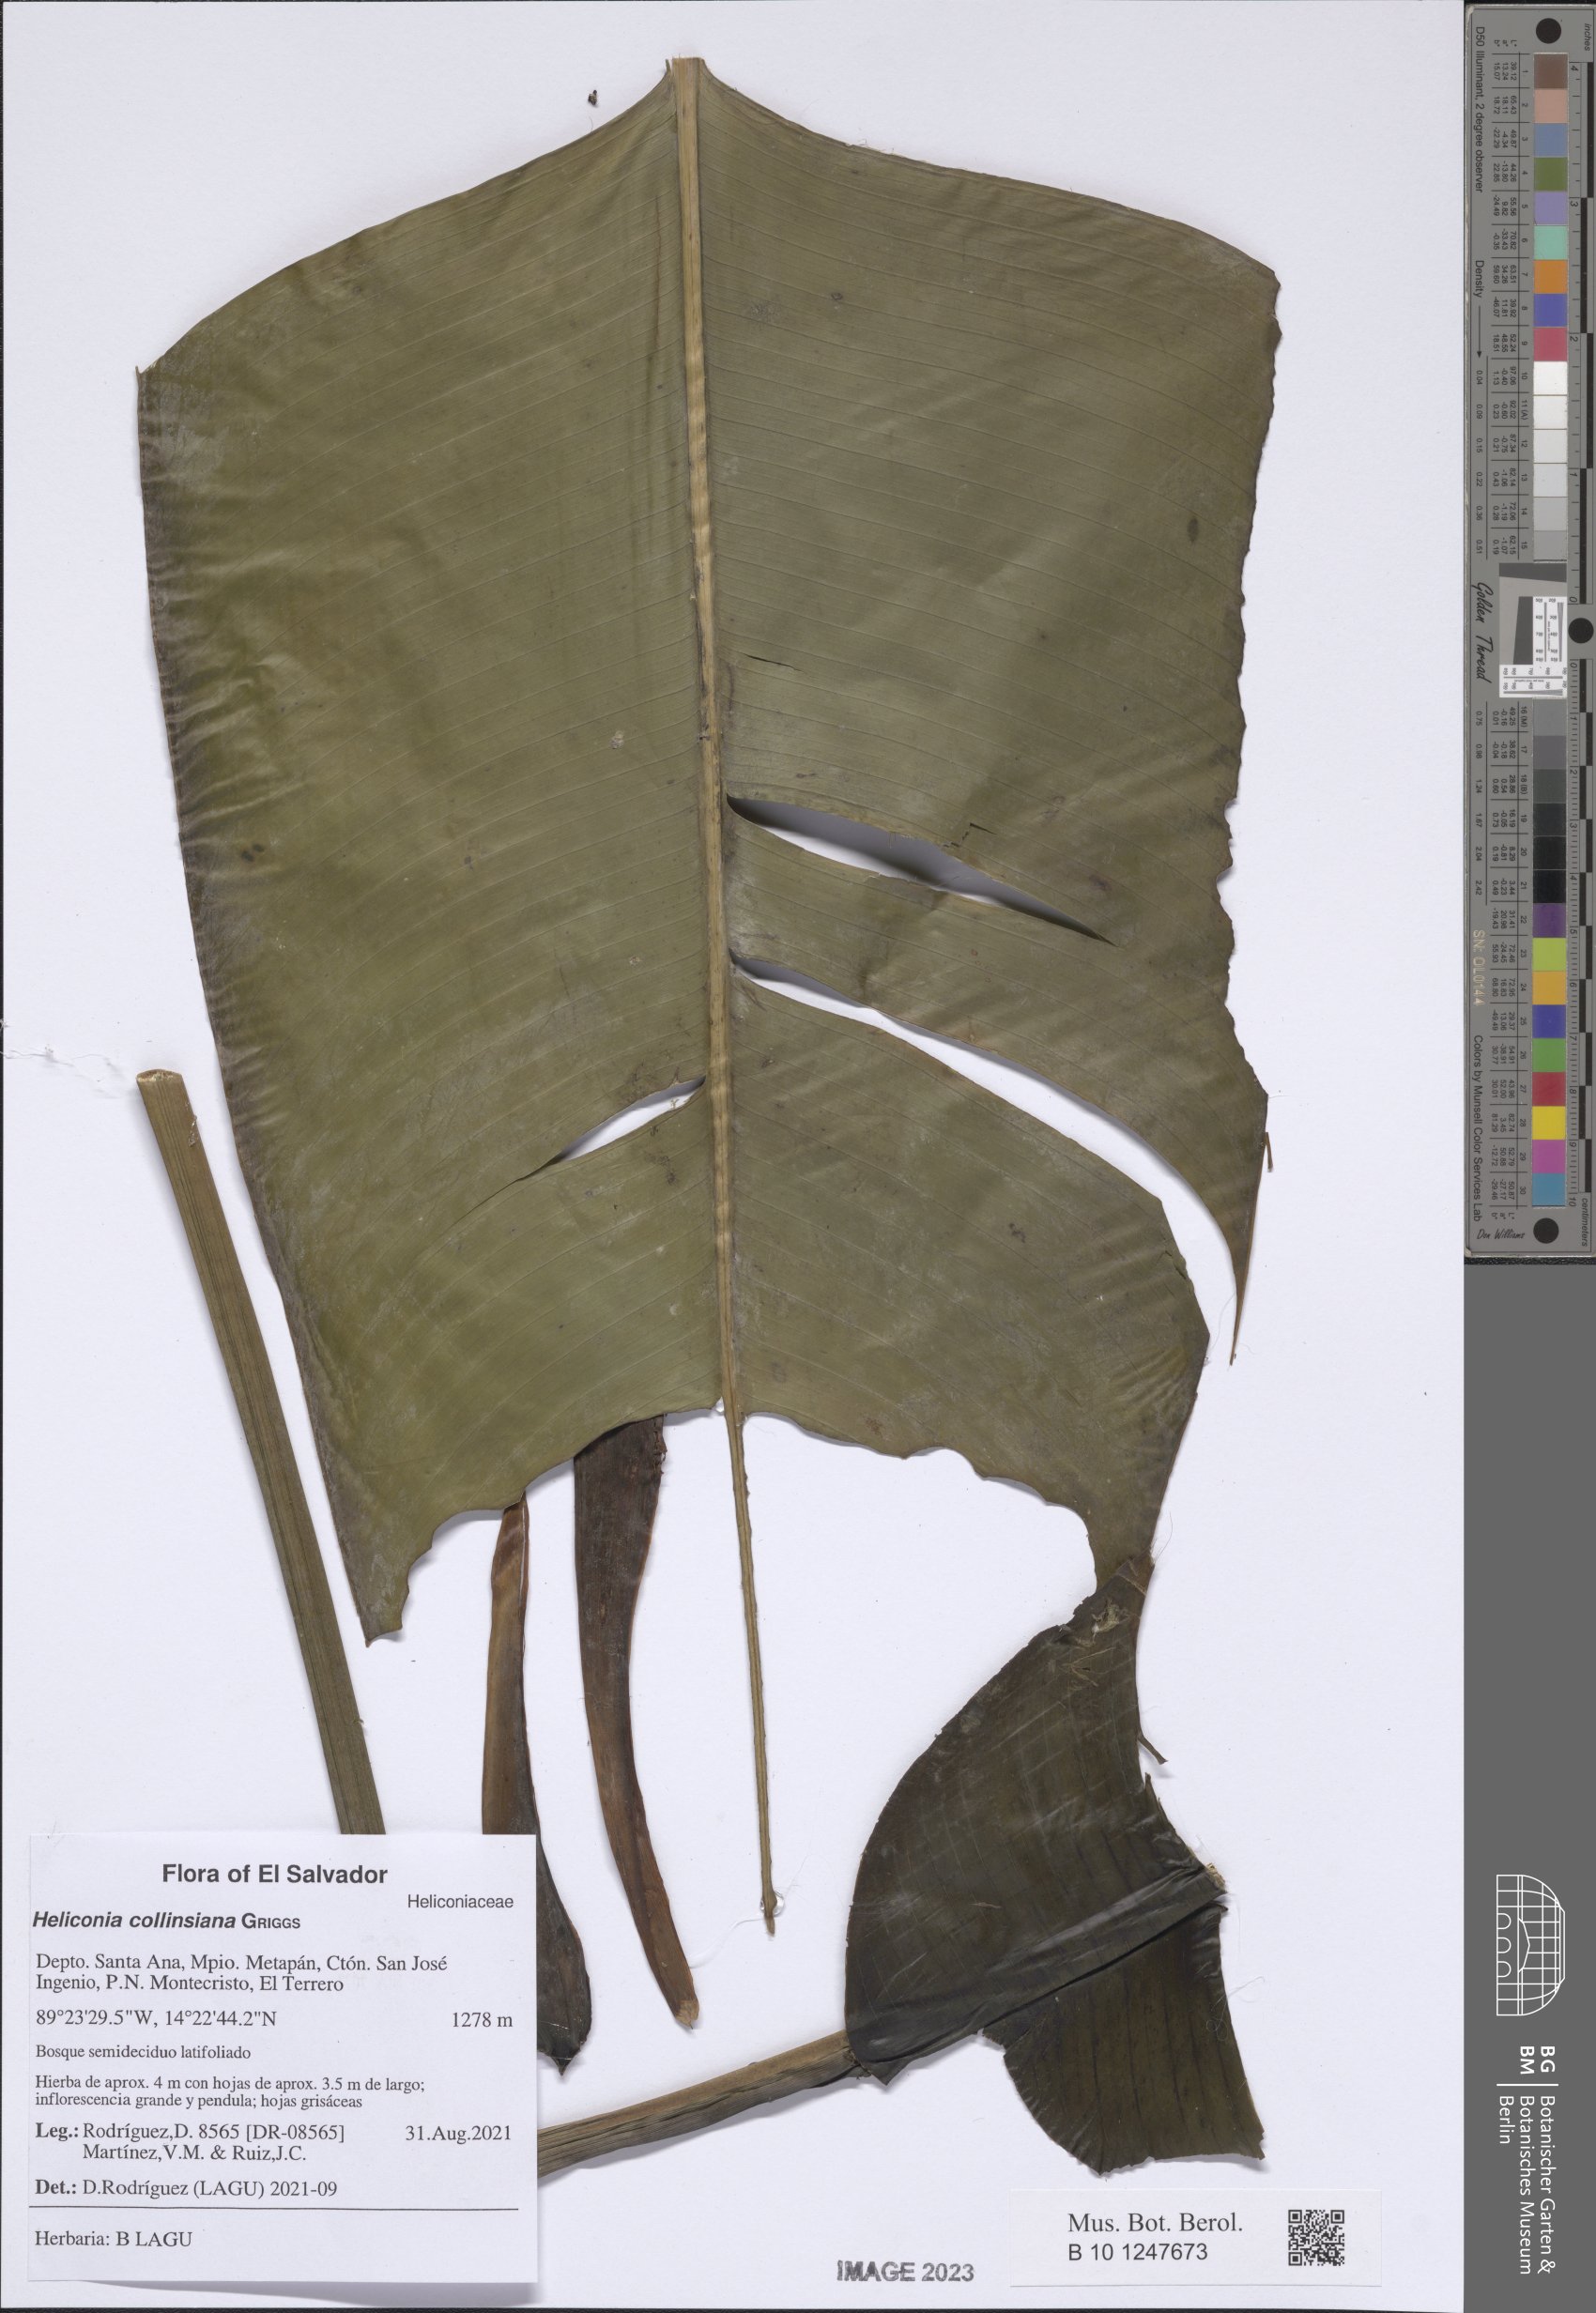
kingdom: Plantae
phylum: Tracheophyta
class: Liliopsida
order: Zingiberales
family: Heliconiaceae
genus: Heliconia
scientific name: Heliconia collinsiana
